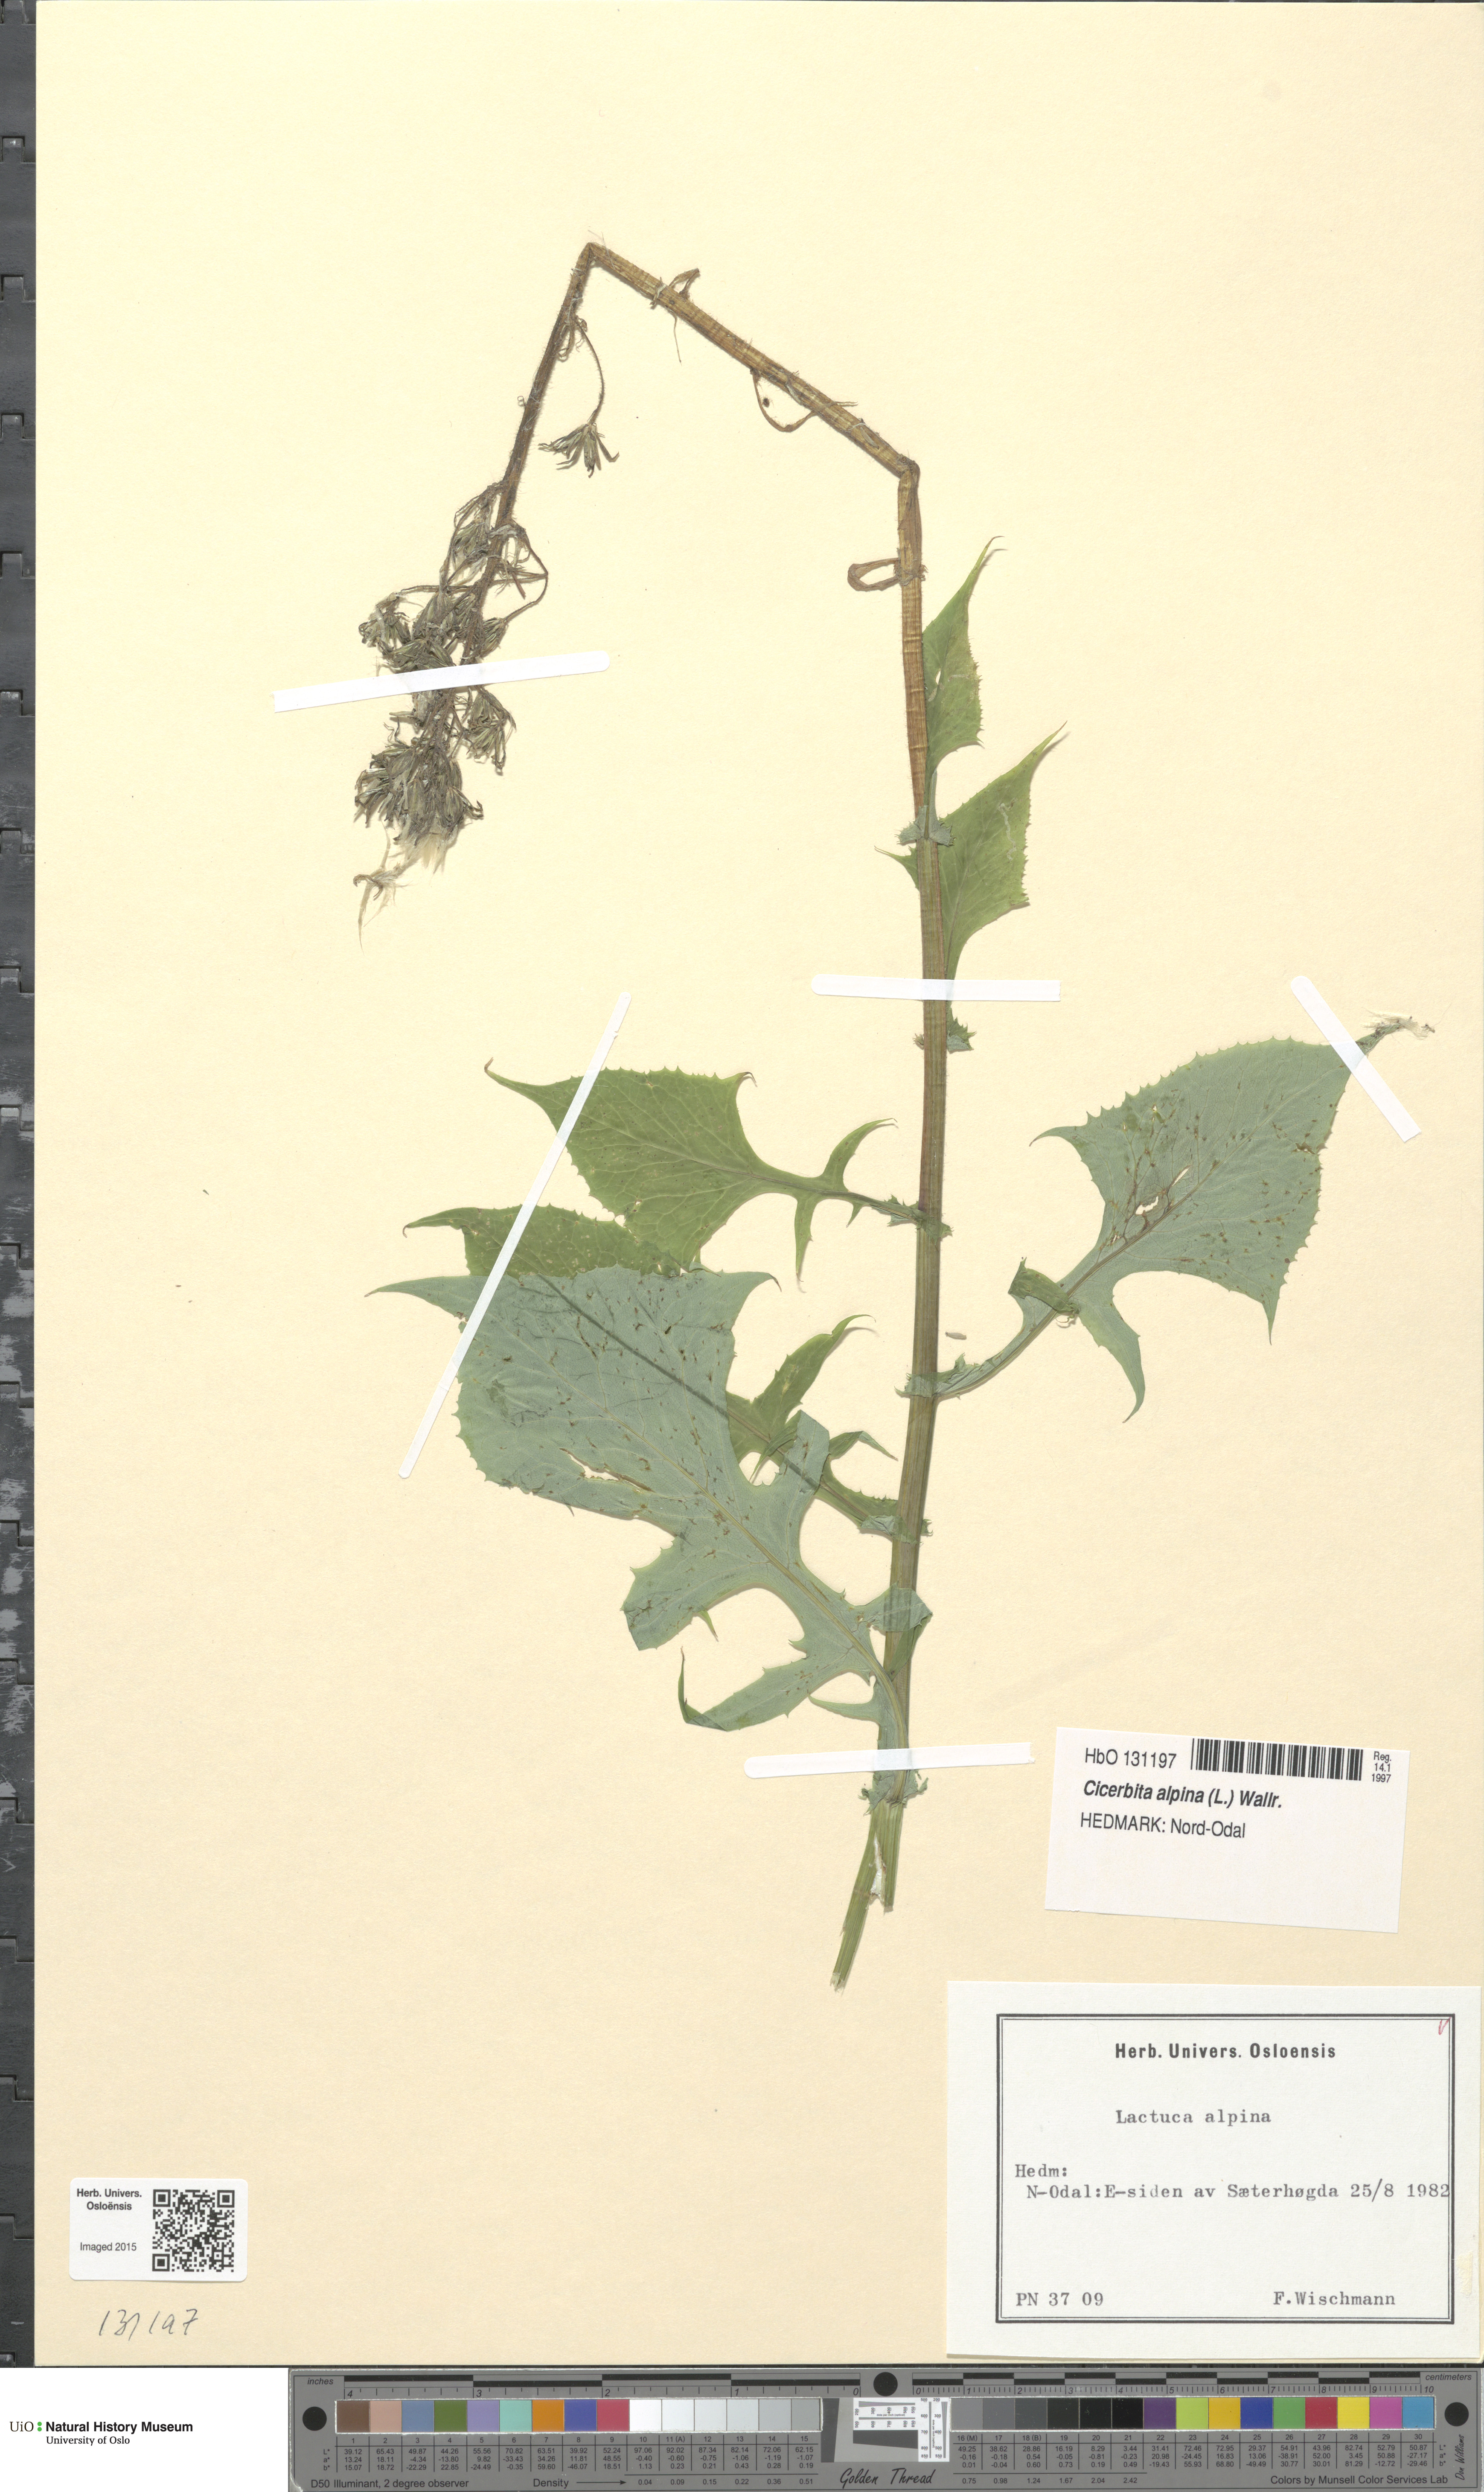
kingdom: Plantae
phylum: Tracheophyta
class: Magnoliopsida
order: Asterales
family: Asteraceae
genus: Cicerbita
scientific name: Cicerbita alpina
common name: Alpine blue-sow-thistle
